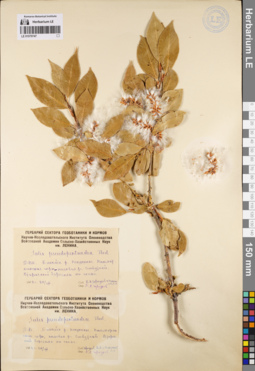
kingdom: Plantae
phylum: Tracheophyta
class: Magnoliopsida
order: Malpighiales
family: Salicaceae
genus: Salix
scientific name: Salix pseudopentandra
